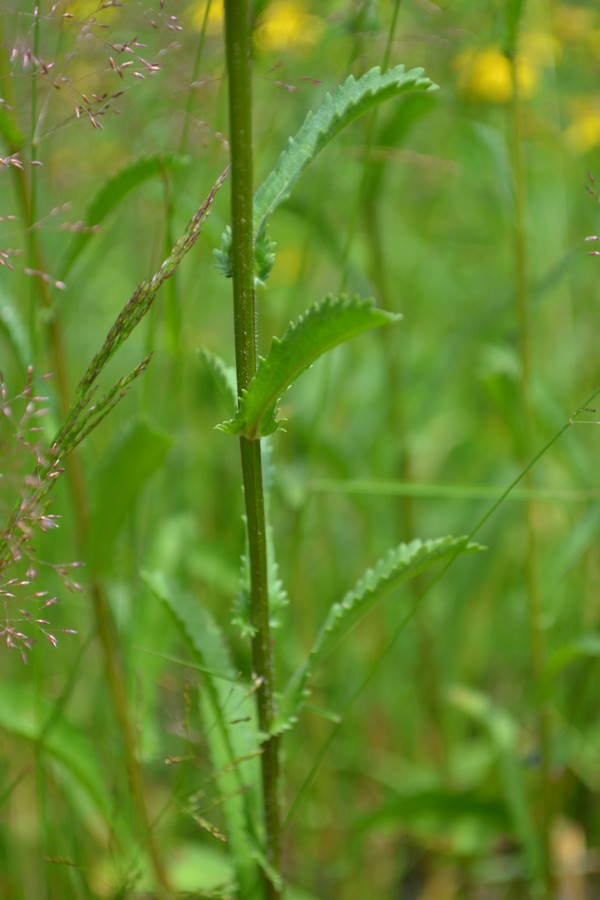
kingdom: Plantae
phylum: Tracheophyta
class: Magnoliopsida
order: Asterales
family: Asteraceae
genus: Leucanthemum
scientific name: Leucanthemum vulgare
